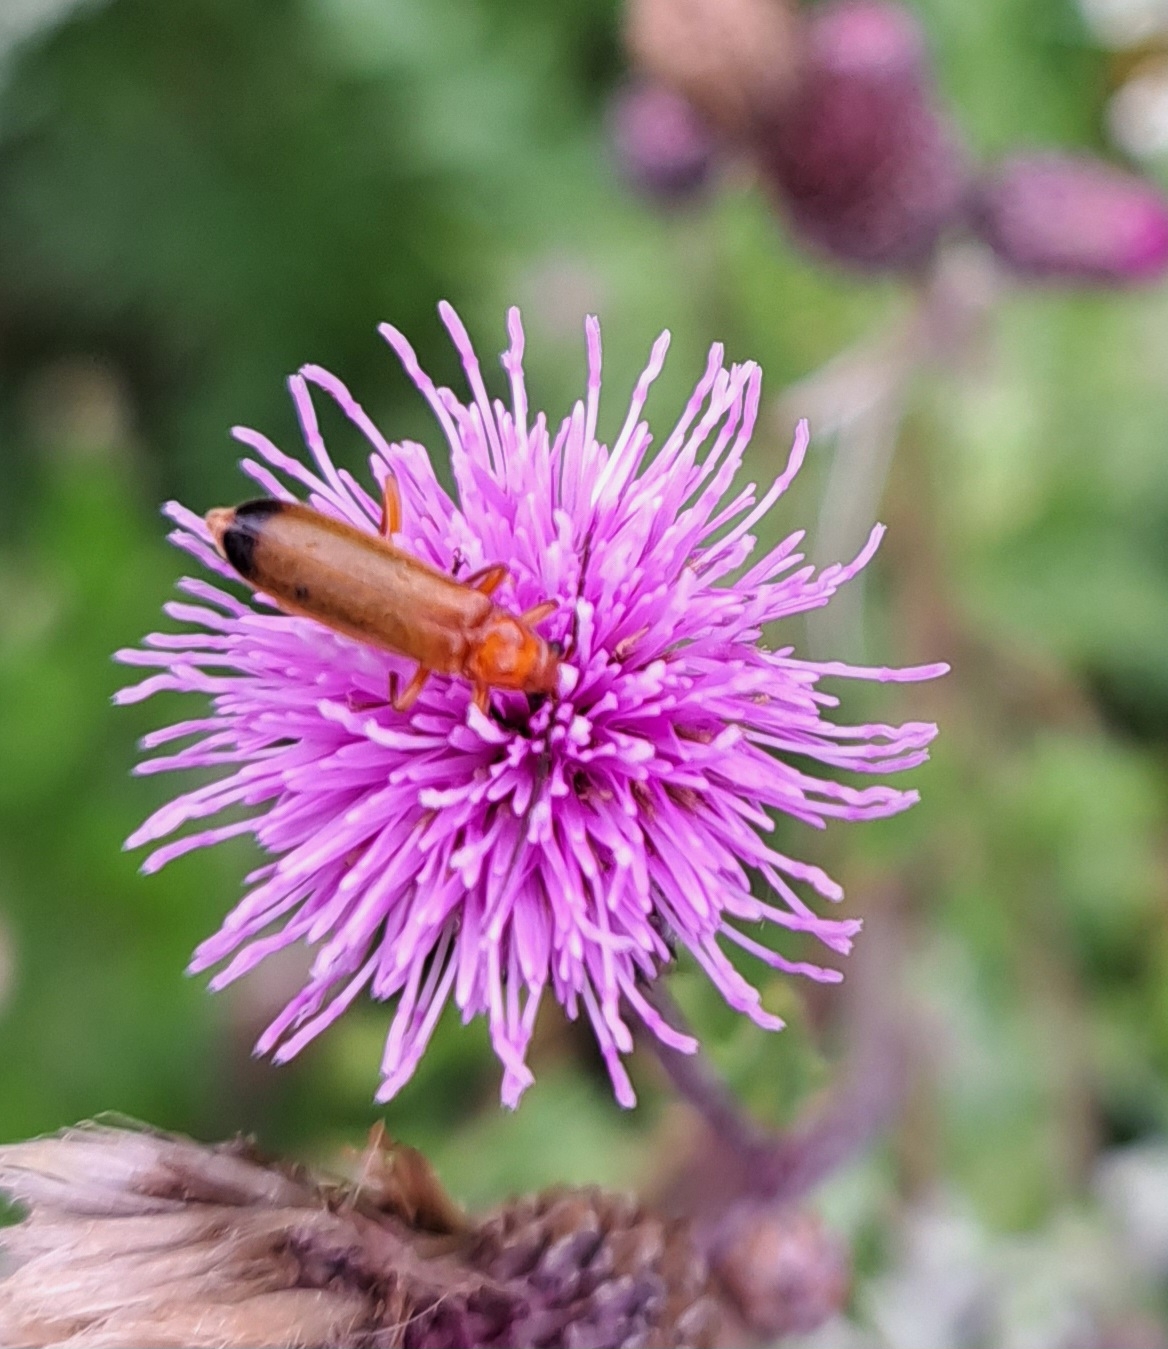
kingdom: Animalia
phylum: Arthropoda
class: Insecta
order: Coleoptera
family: Cantharidae
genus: Rhagonycha
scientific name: Rhagonycha fulva
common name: Præstebille
